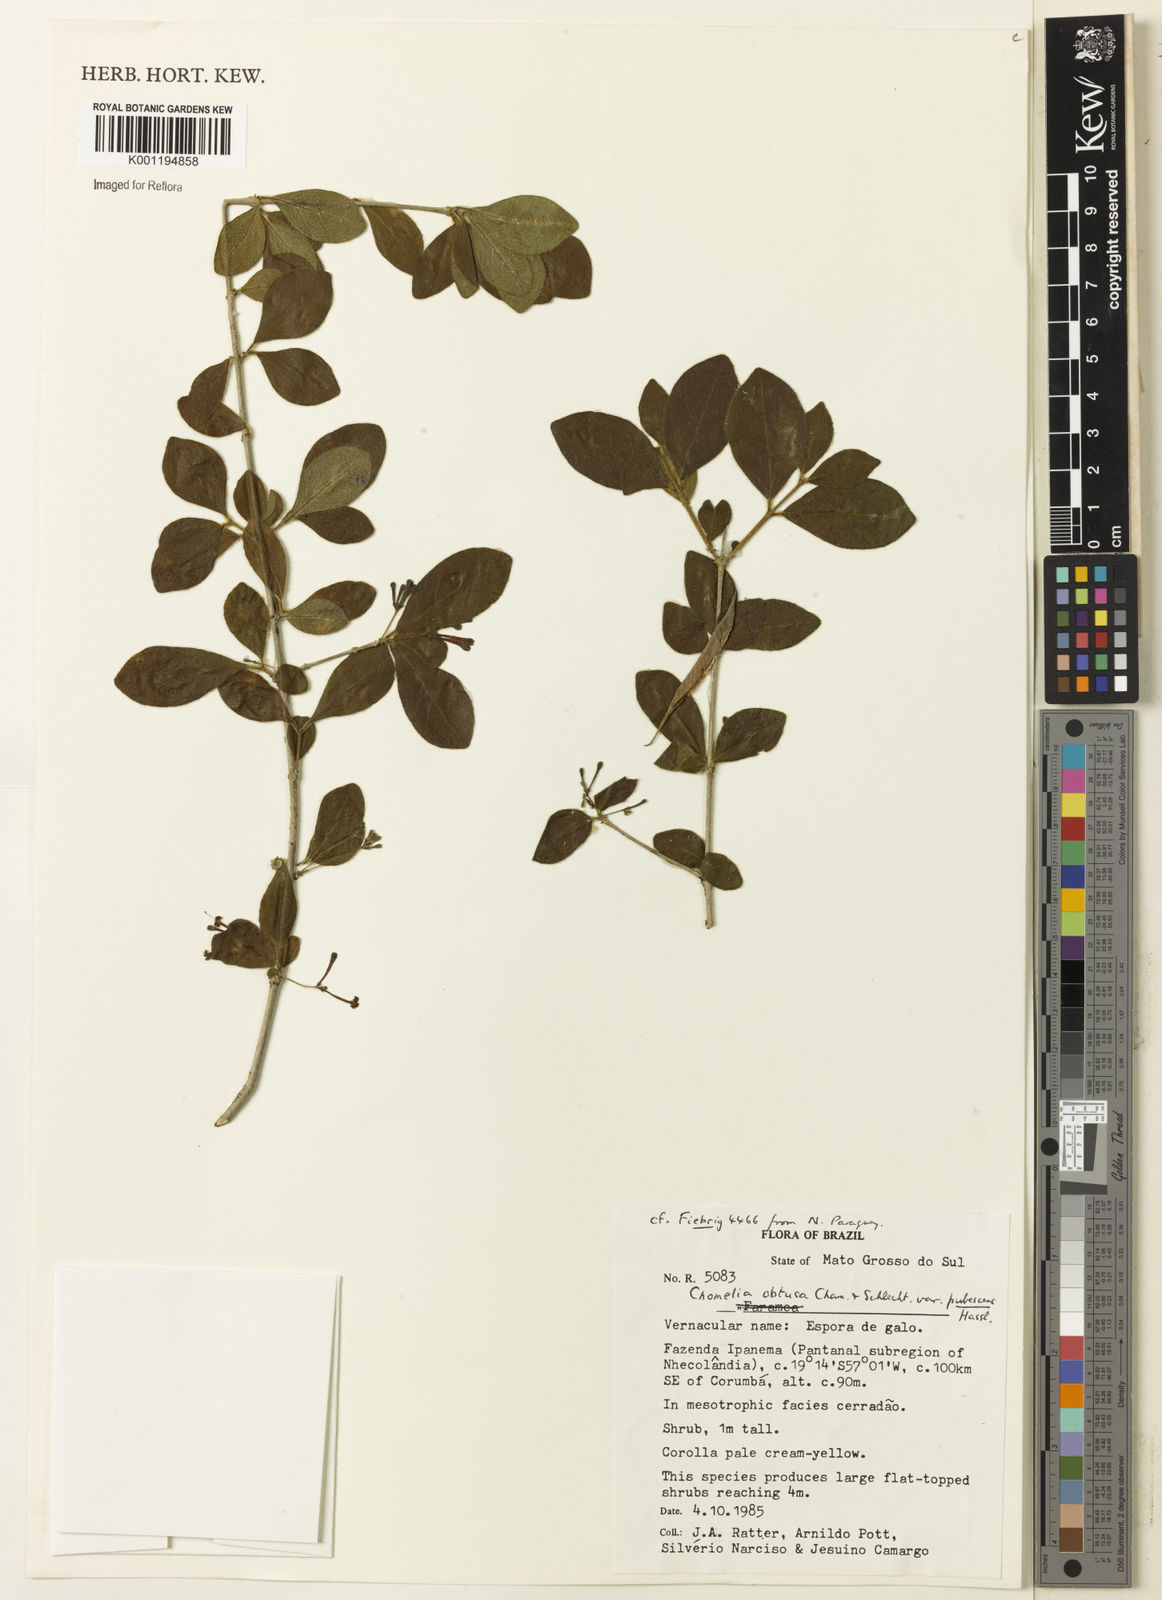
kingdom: Plantae
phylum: Tracheophyta
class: Magnoliopsida
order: Gentianales
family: Rubiaceae
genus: Chomelia
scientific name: Chomelia obtusa
